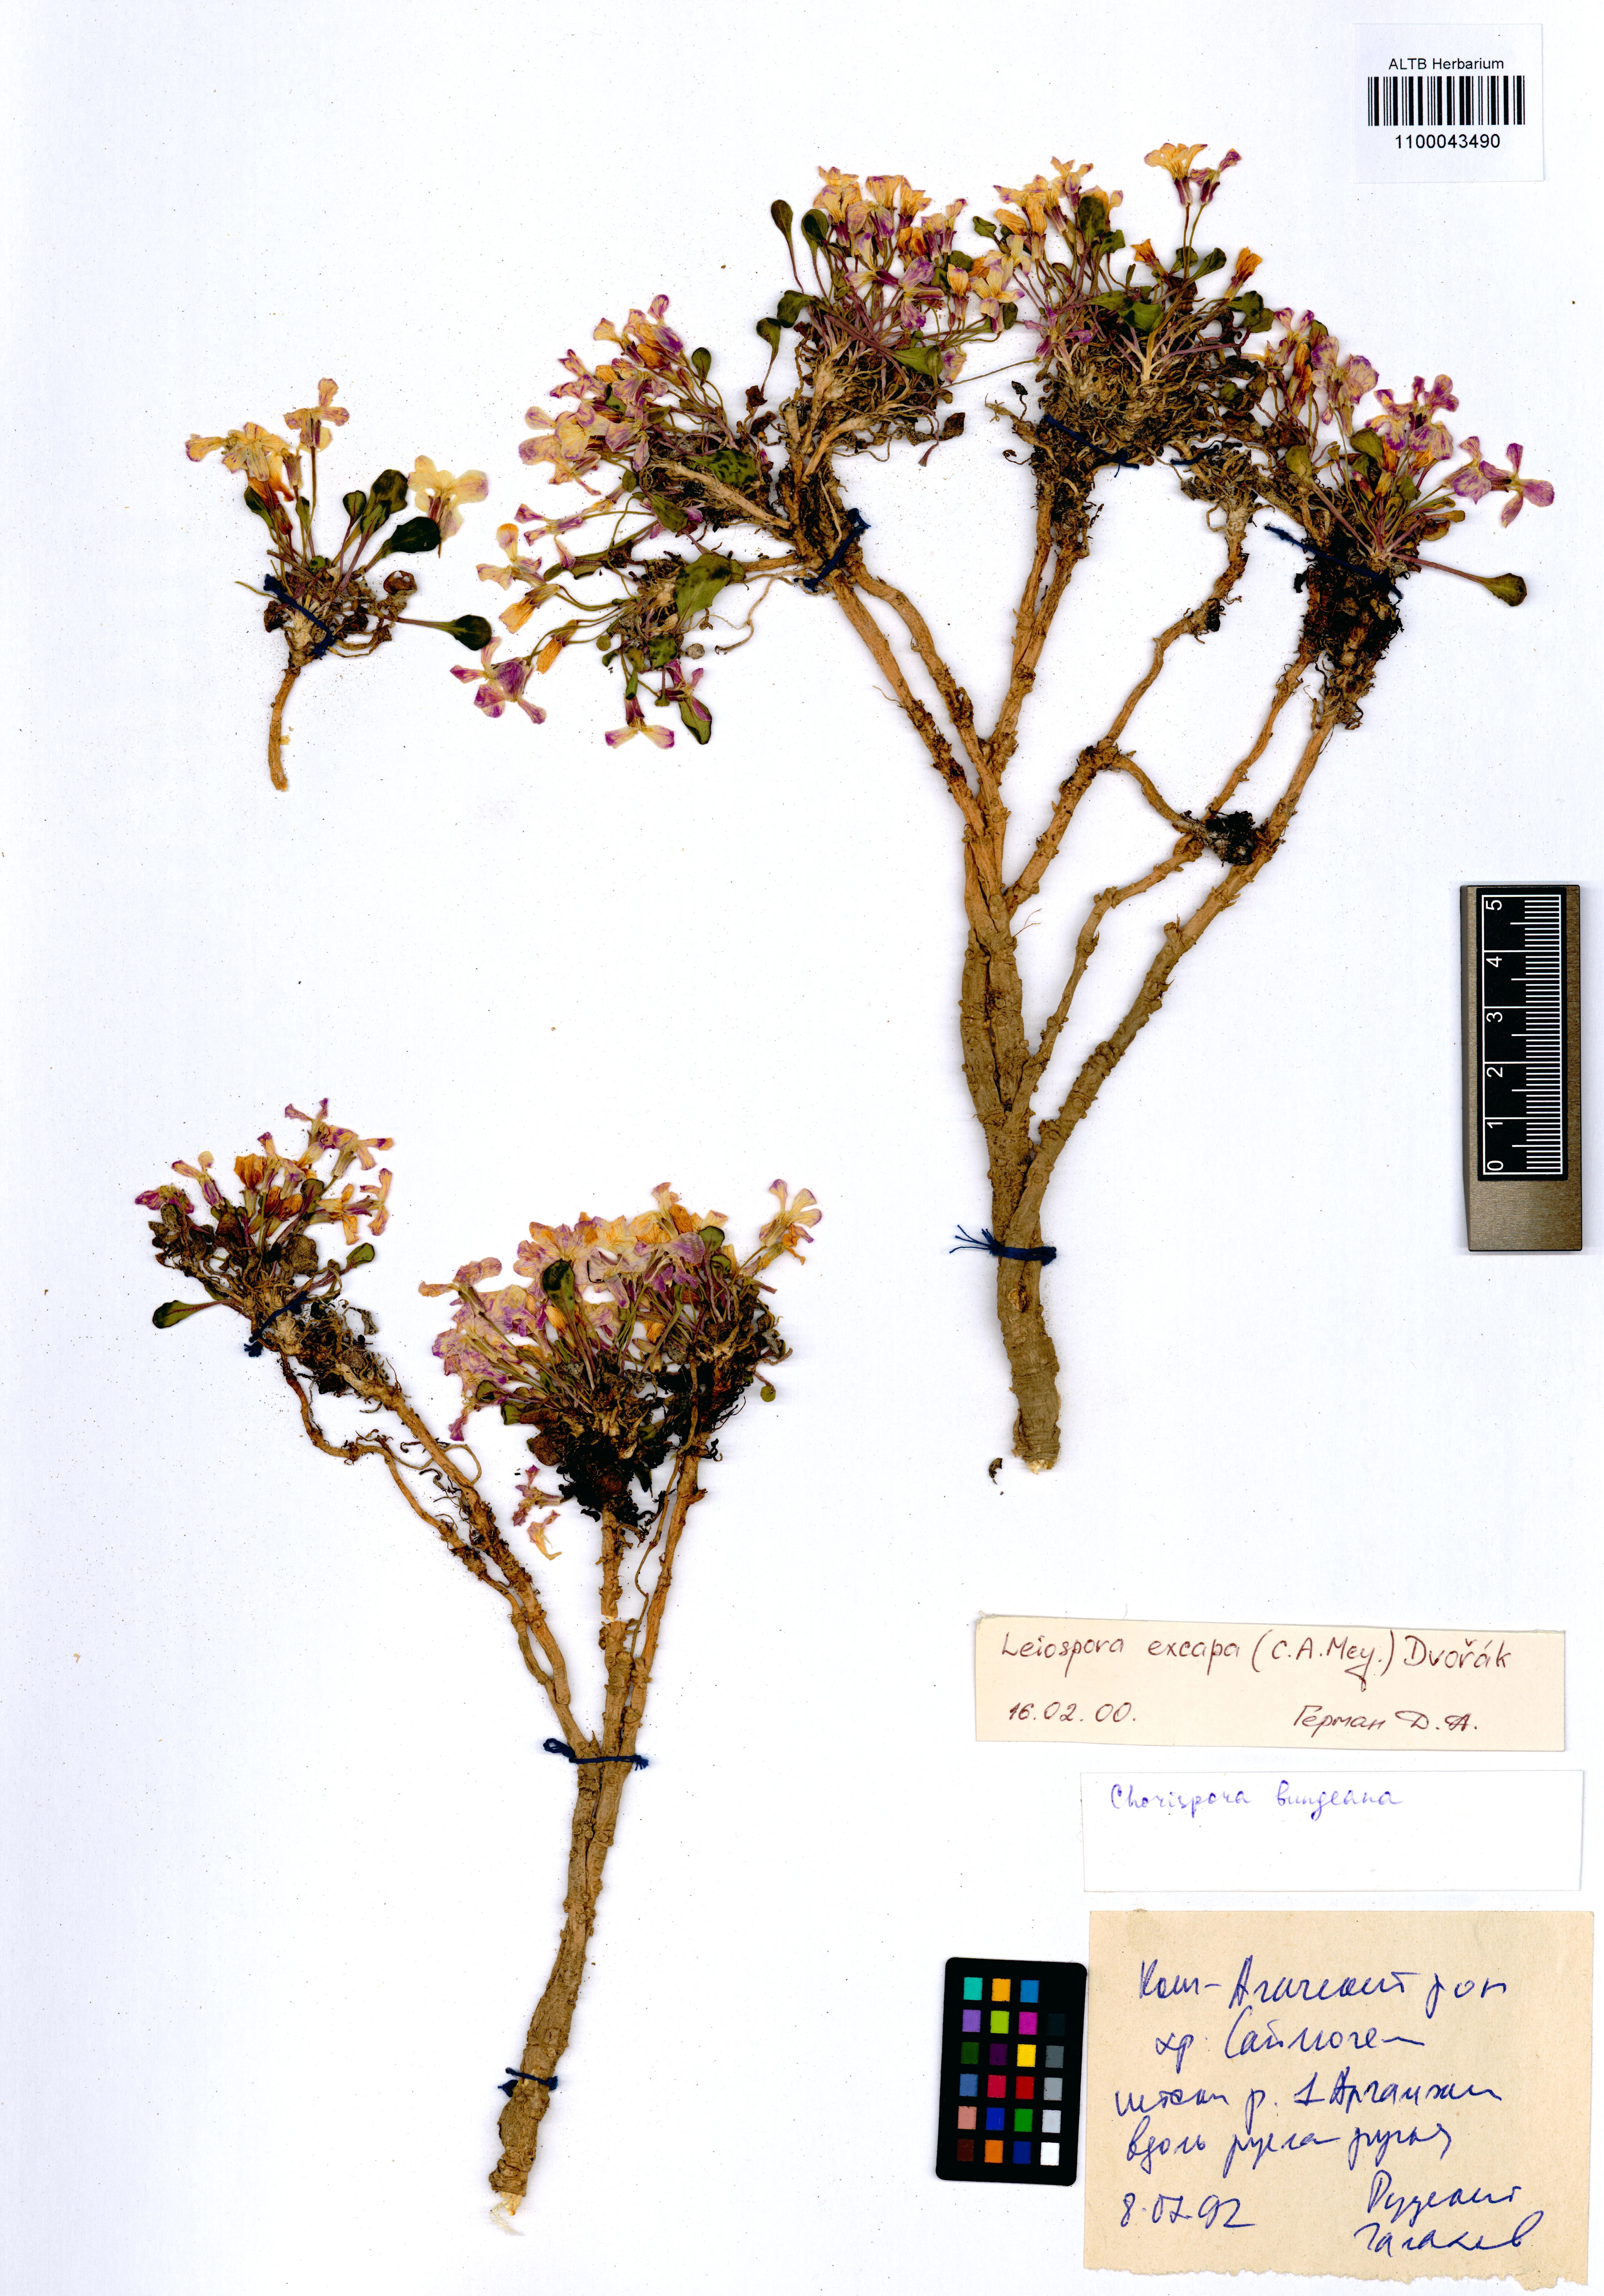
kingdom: Plantae
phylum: Tracheophyta
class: Magnoliopsida
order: Brassicales
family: Brassicaceae
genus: Leiospora
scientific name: Leiospora exscapa
